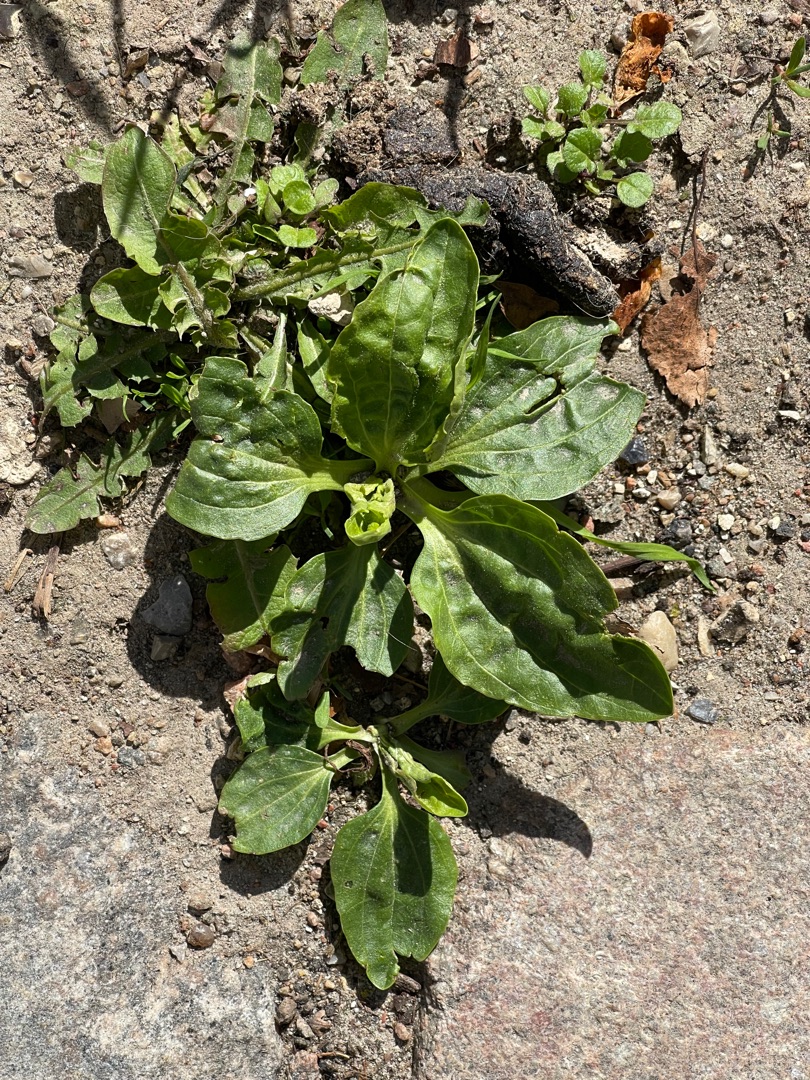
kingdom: Plantae
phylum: Tracheophyta
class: Magnoliopsida
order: Lamiales
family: Plantaginaceae
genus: Plantago
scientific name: Plantago major
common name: Glat vejbred
